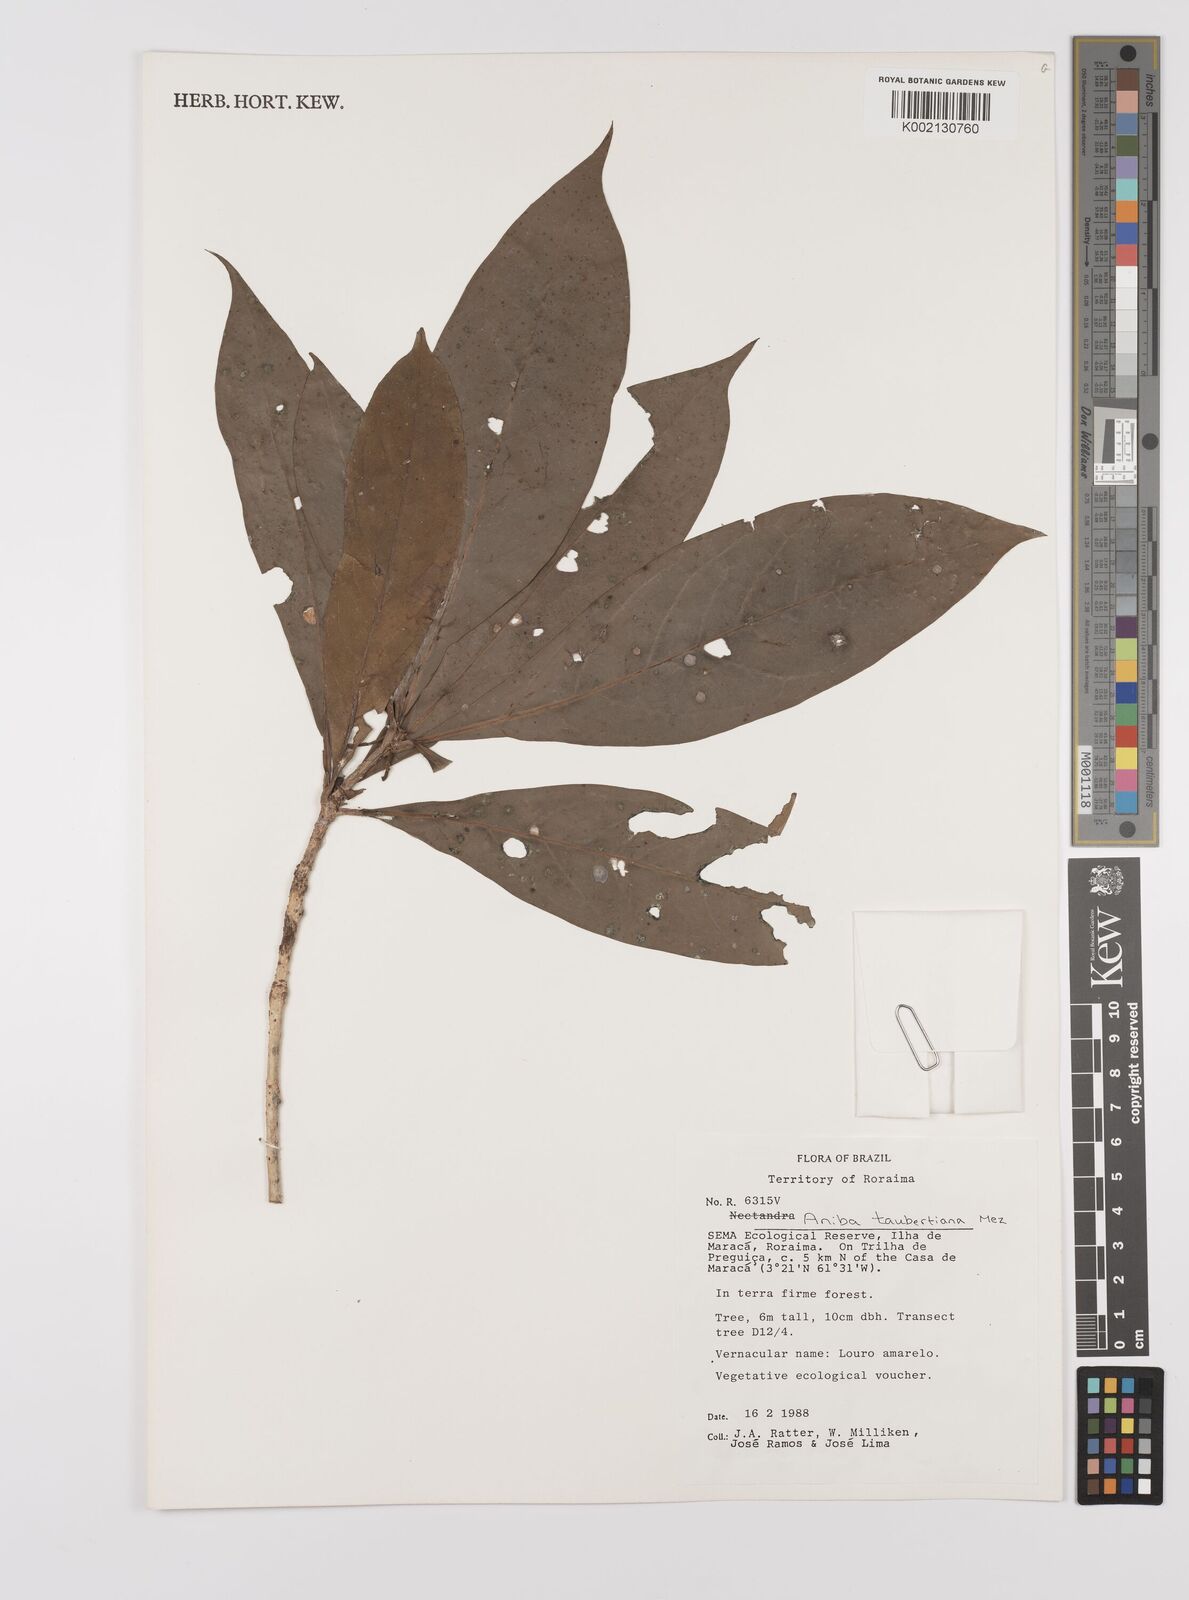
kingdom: Plantae
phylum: Tracheophyta
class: Magnoliopsida
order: Laurales
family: Lauraceae
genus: Aniba
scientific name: Aniba taubertiana
